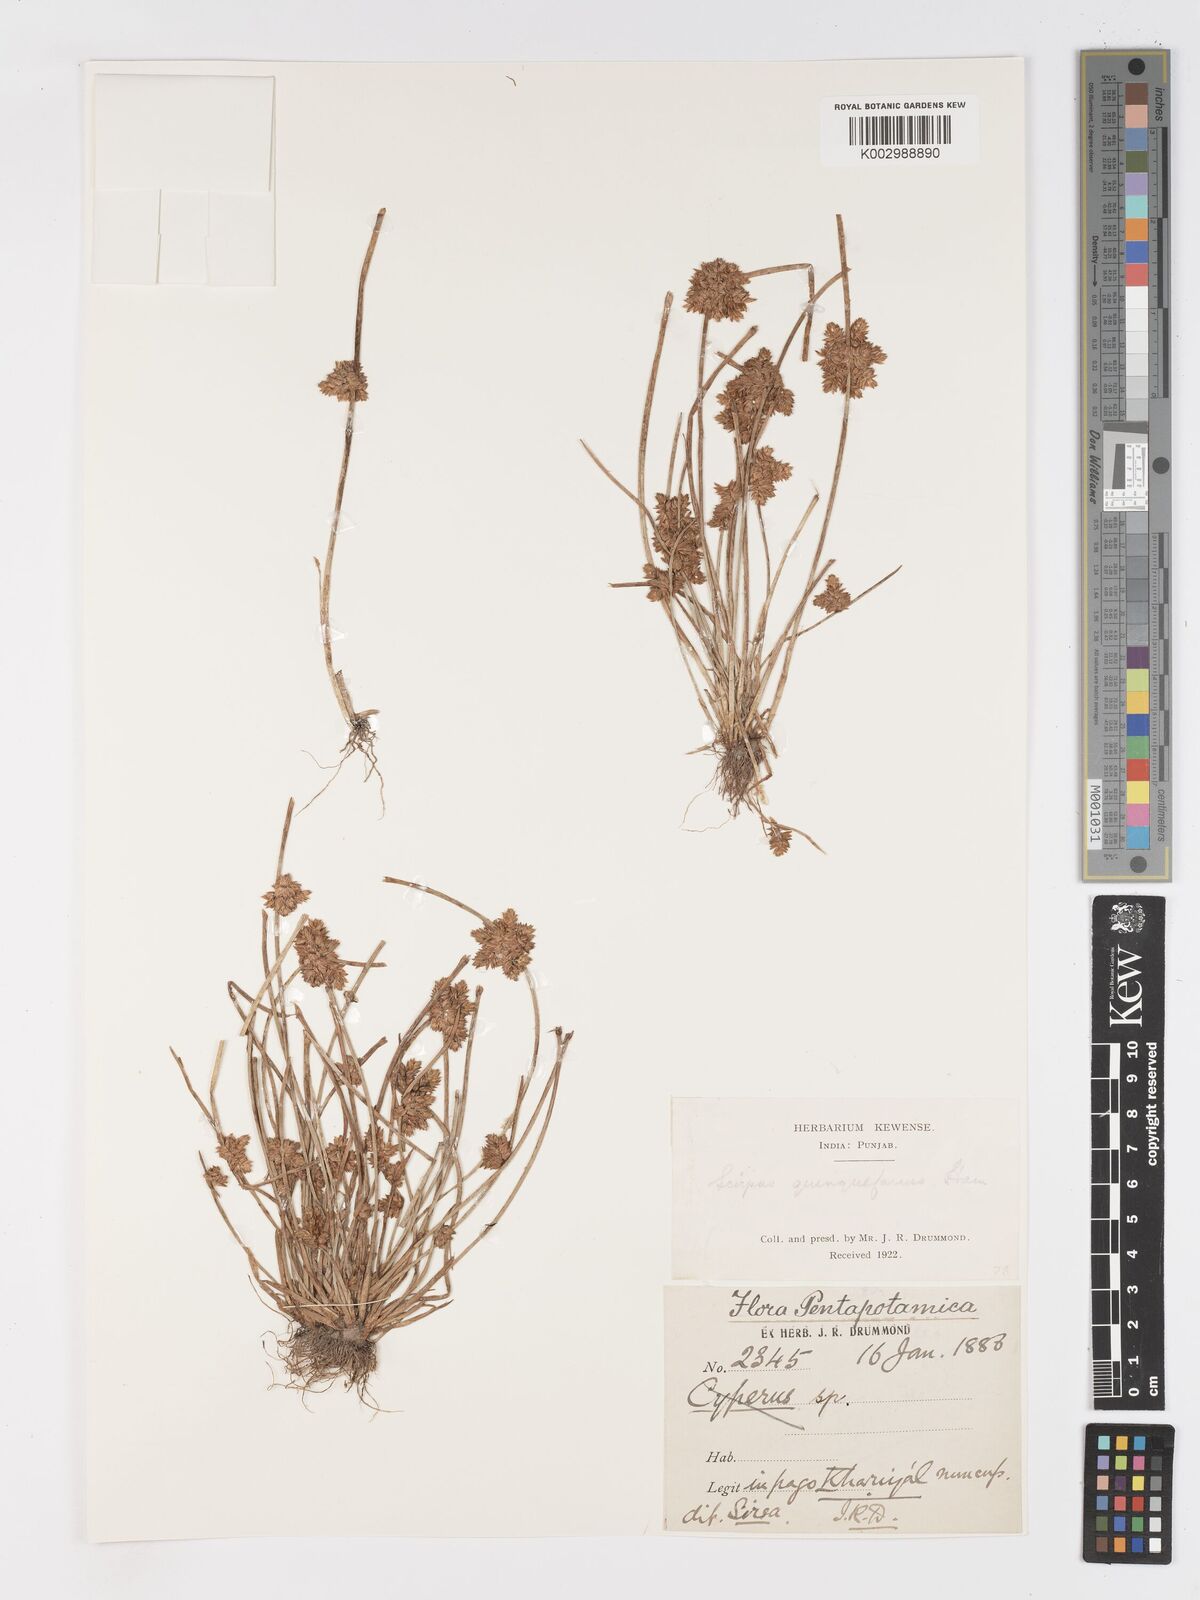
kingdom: Plantae
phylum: Tracheophyta
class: Liliopsida
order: Poales
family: Cyperaceae
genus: Schoenoplectiella
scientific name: Schoenoplectiella roylei
